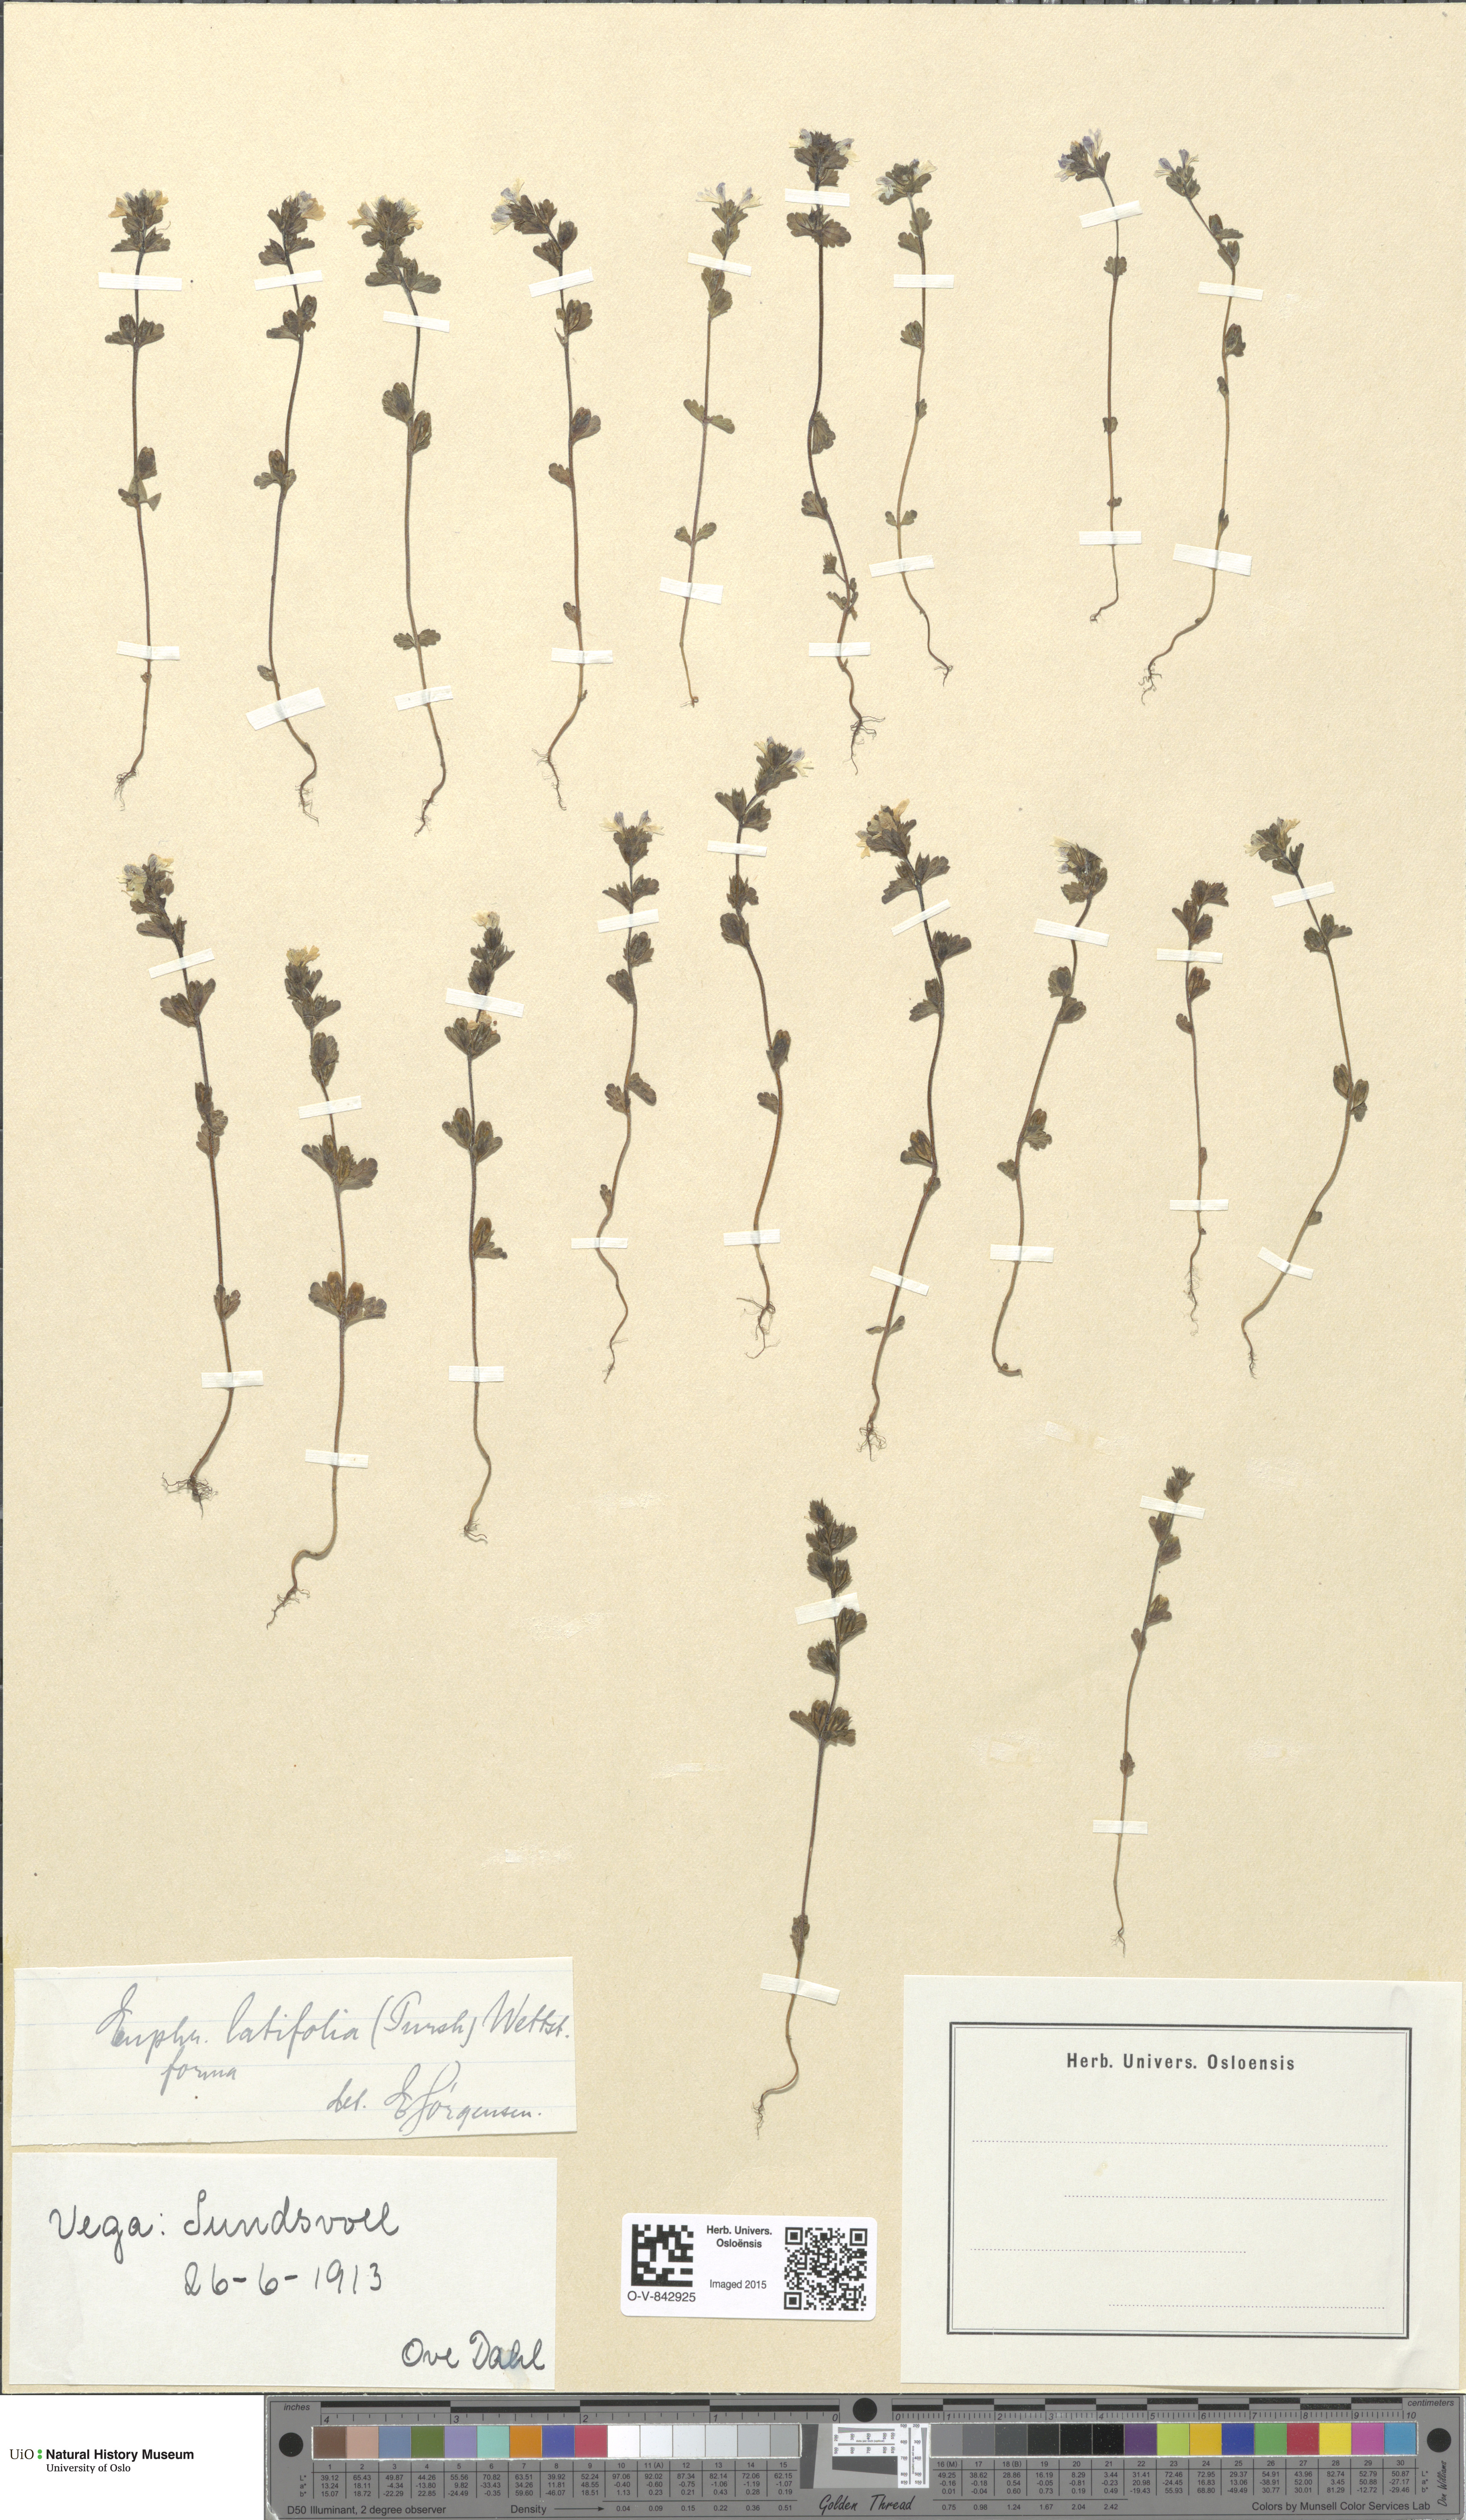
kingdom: Plantae
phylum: Tracheophyta
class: Magnoliopsida
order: Lamiales
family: Orobanchaceae
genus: Euphrasia
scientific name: Euphrasia wettsteinii
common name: Wettstein's eyebright
